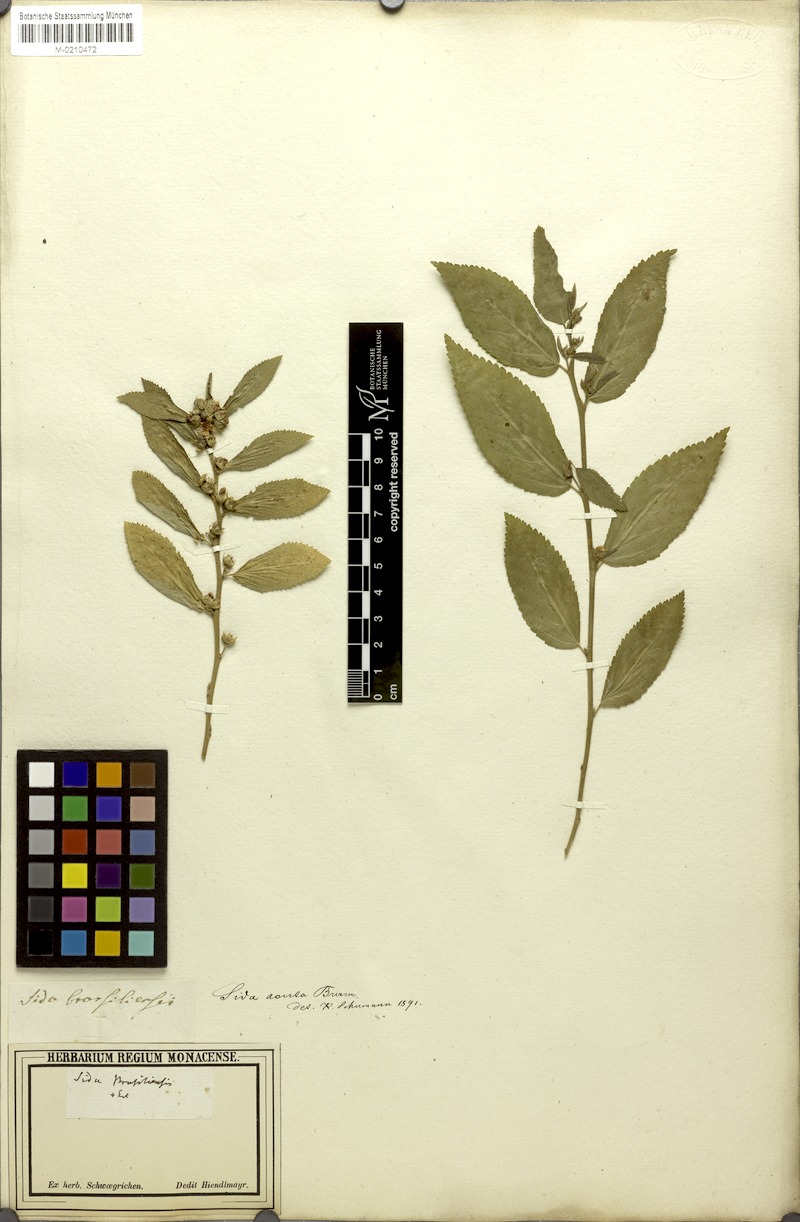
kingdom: Plantae
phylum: Tracheophyta
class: Magnoliopsida
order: Malvales
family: Malvaceae
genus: Sida
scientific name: Sida acuta
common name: Common wireweed
